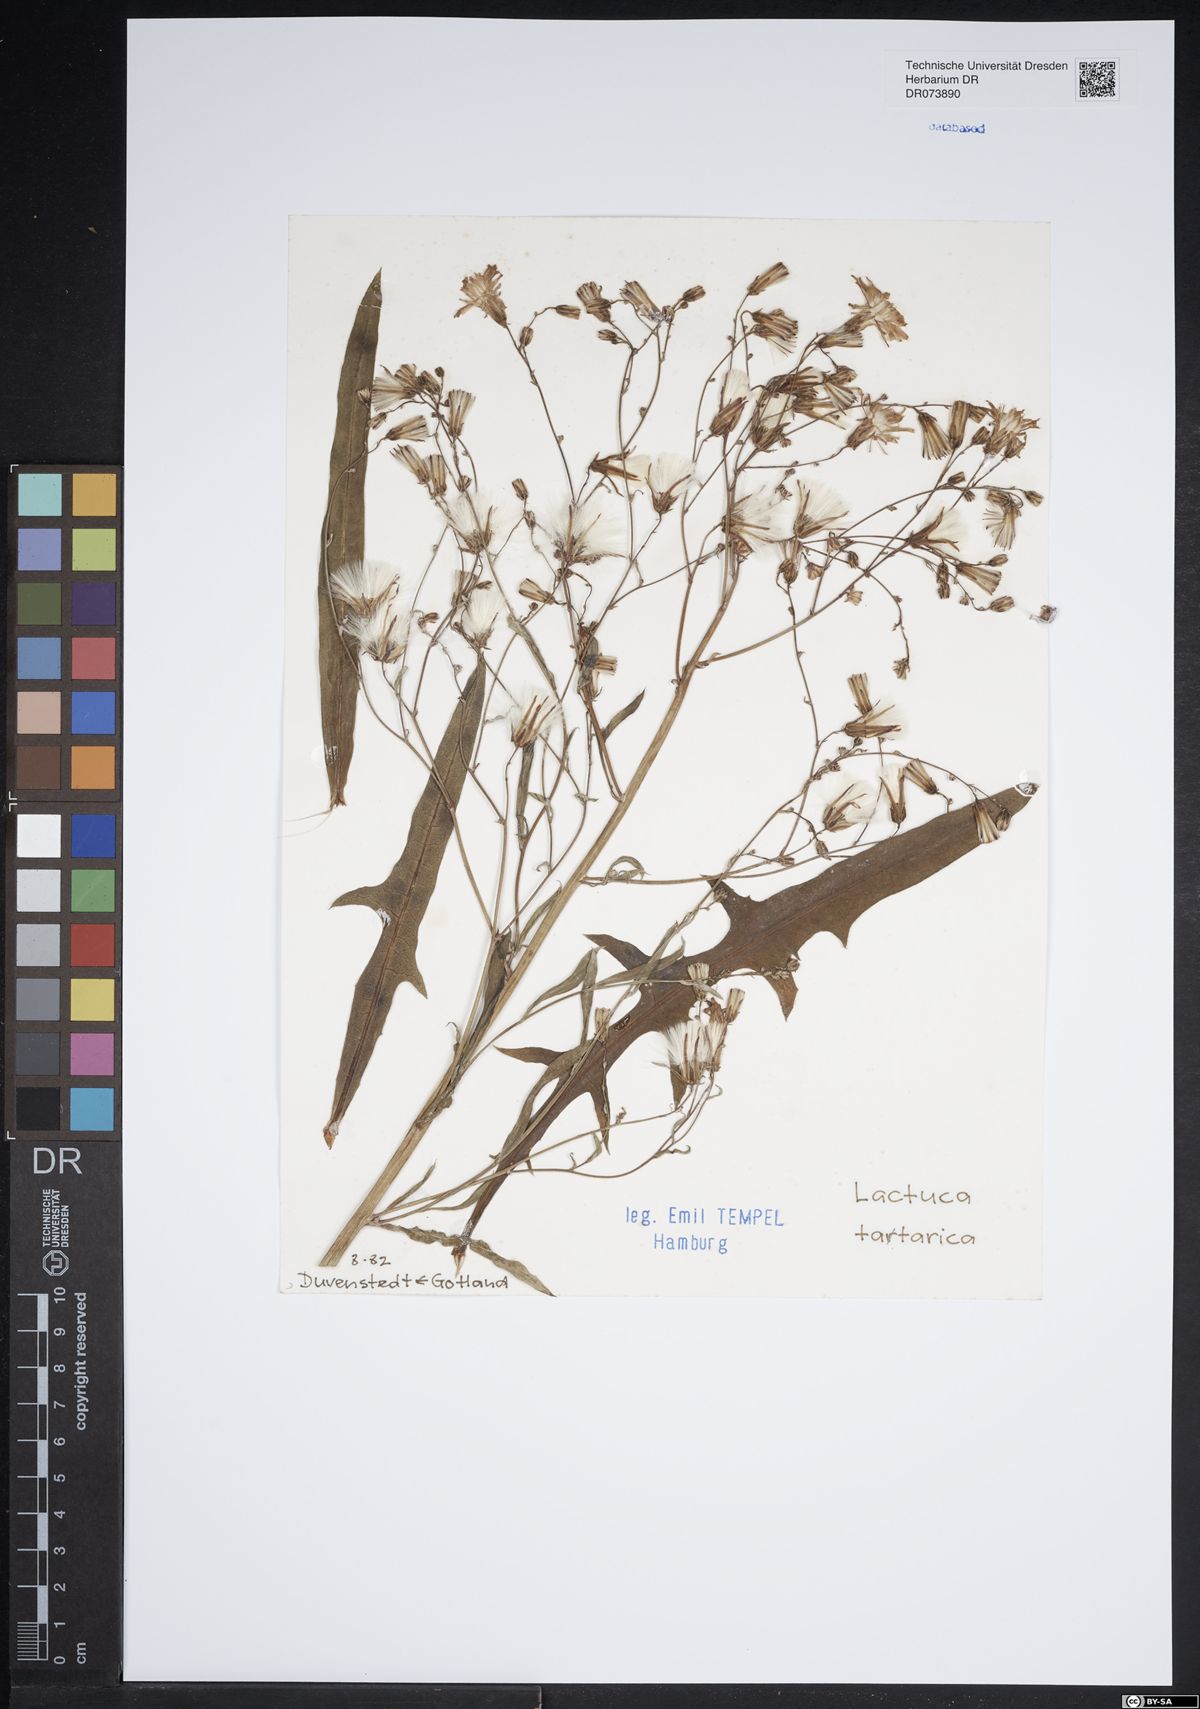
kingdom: Plantae
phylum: Tracheophyta
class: Magnoliopsida
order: Asterales
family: Asteraceae
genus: Lactuca
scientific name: Lactuca tatarica
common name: Blue lettuce
